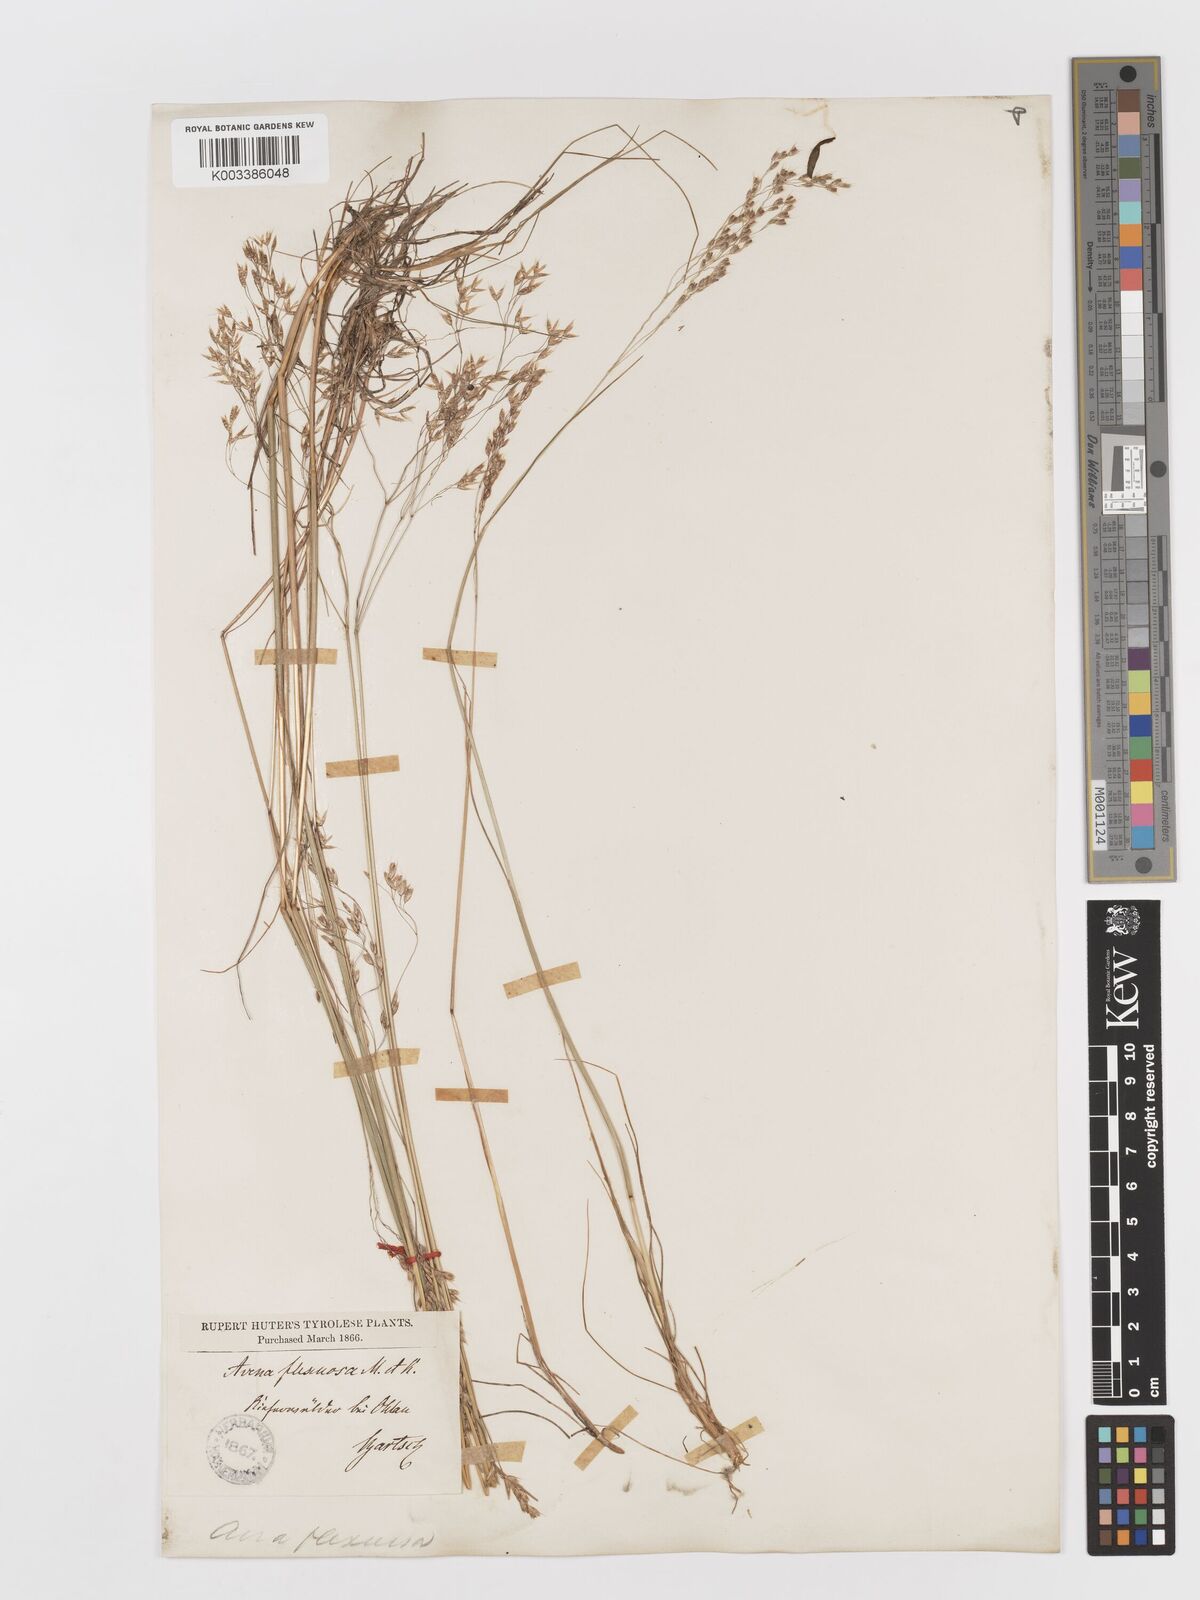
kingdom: Plantae
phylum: Tracheophyta
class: Liliopsida
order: Poales
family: Poaceae
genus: Avenella
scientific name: Avenella flexuosa
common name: Wavy hairgrass
